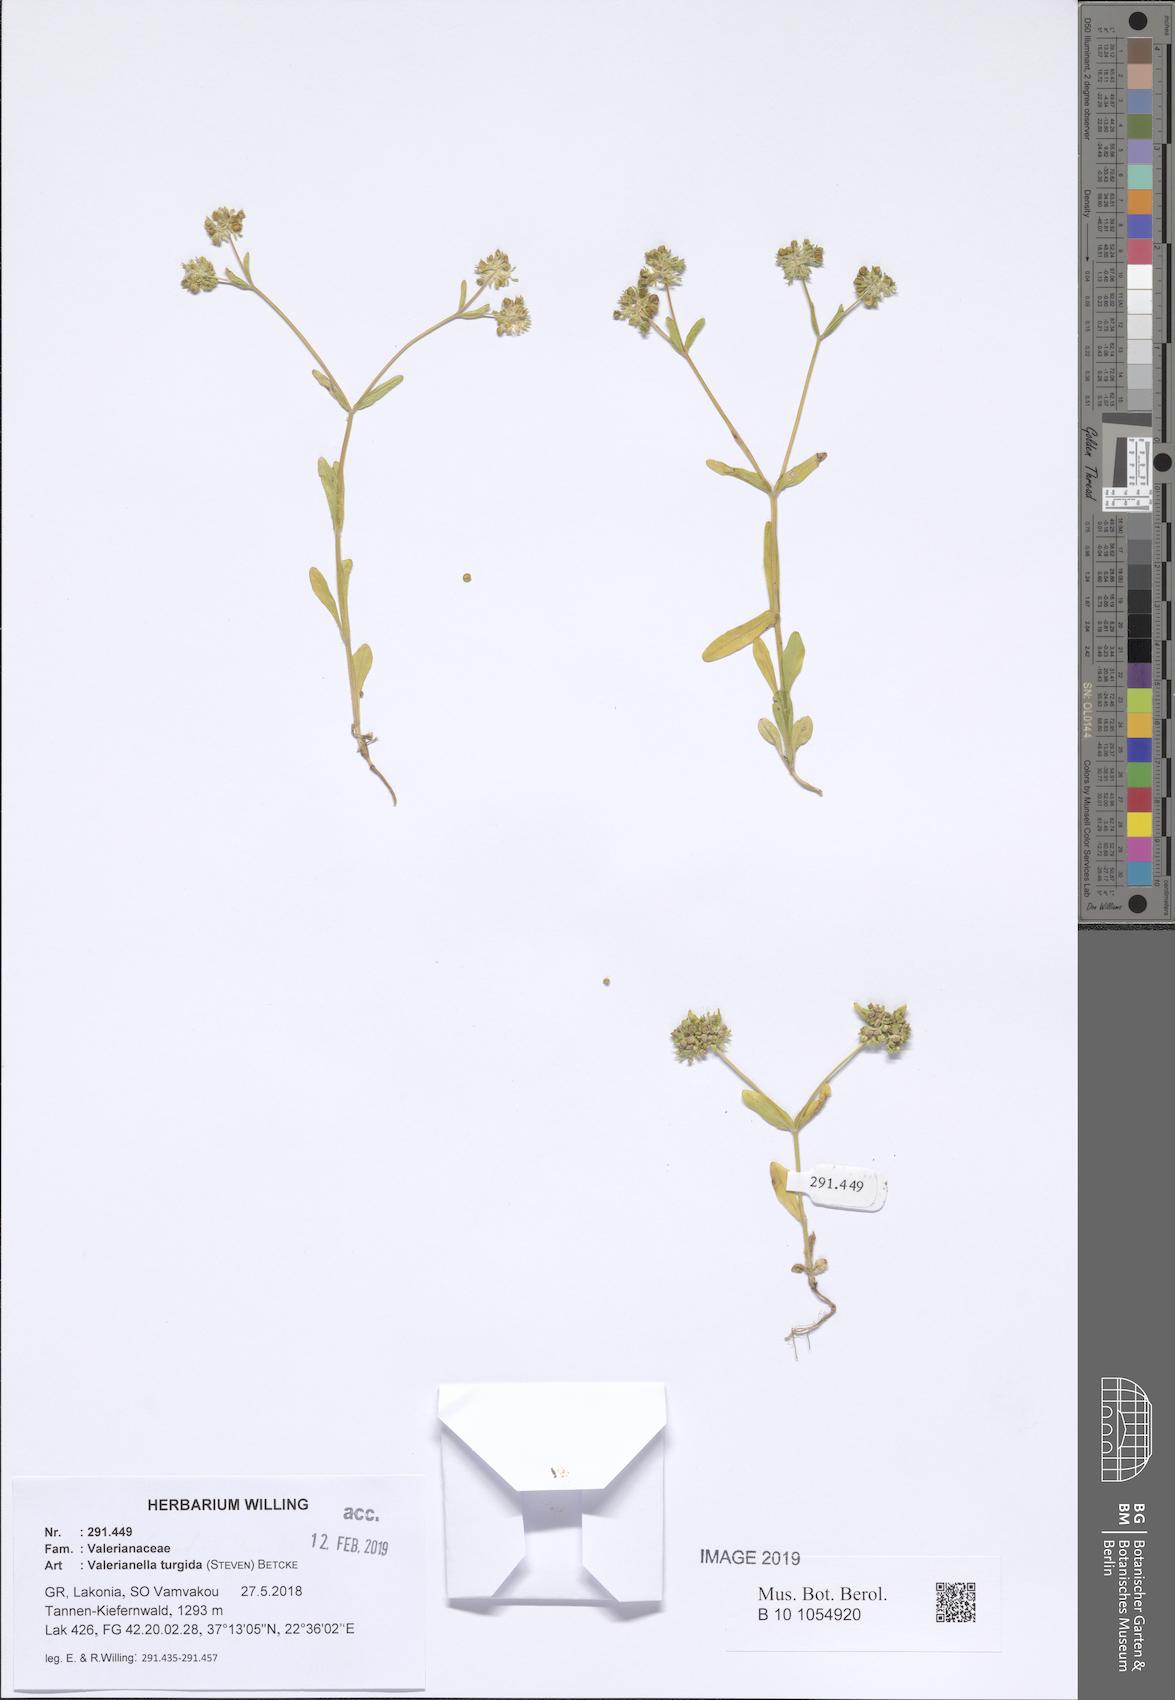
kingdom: Plantae
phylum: Tracheophyta
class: Magnoliopsida
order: Dipsacales
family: Caprifoliaceae
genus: Valerianella
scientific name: Valerianella turgida
